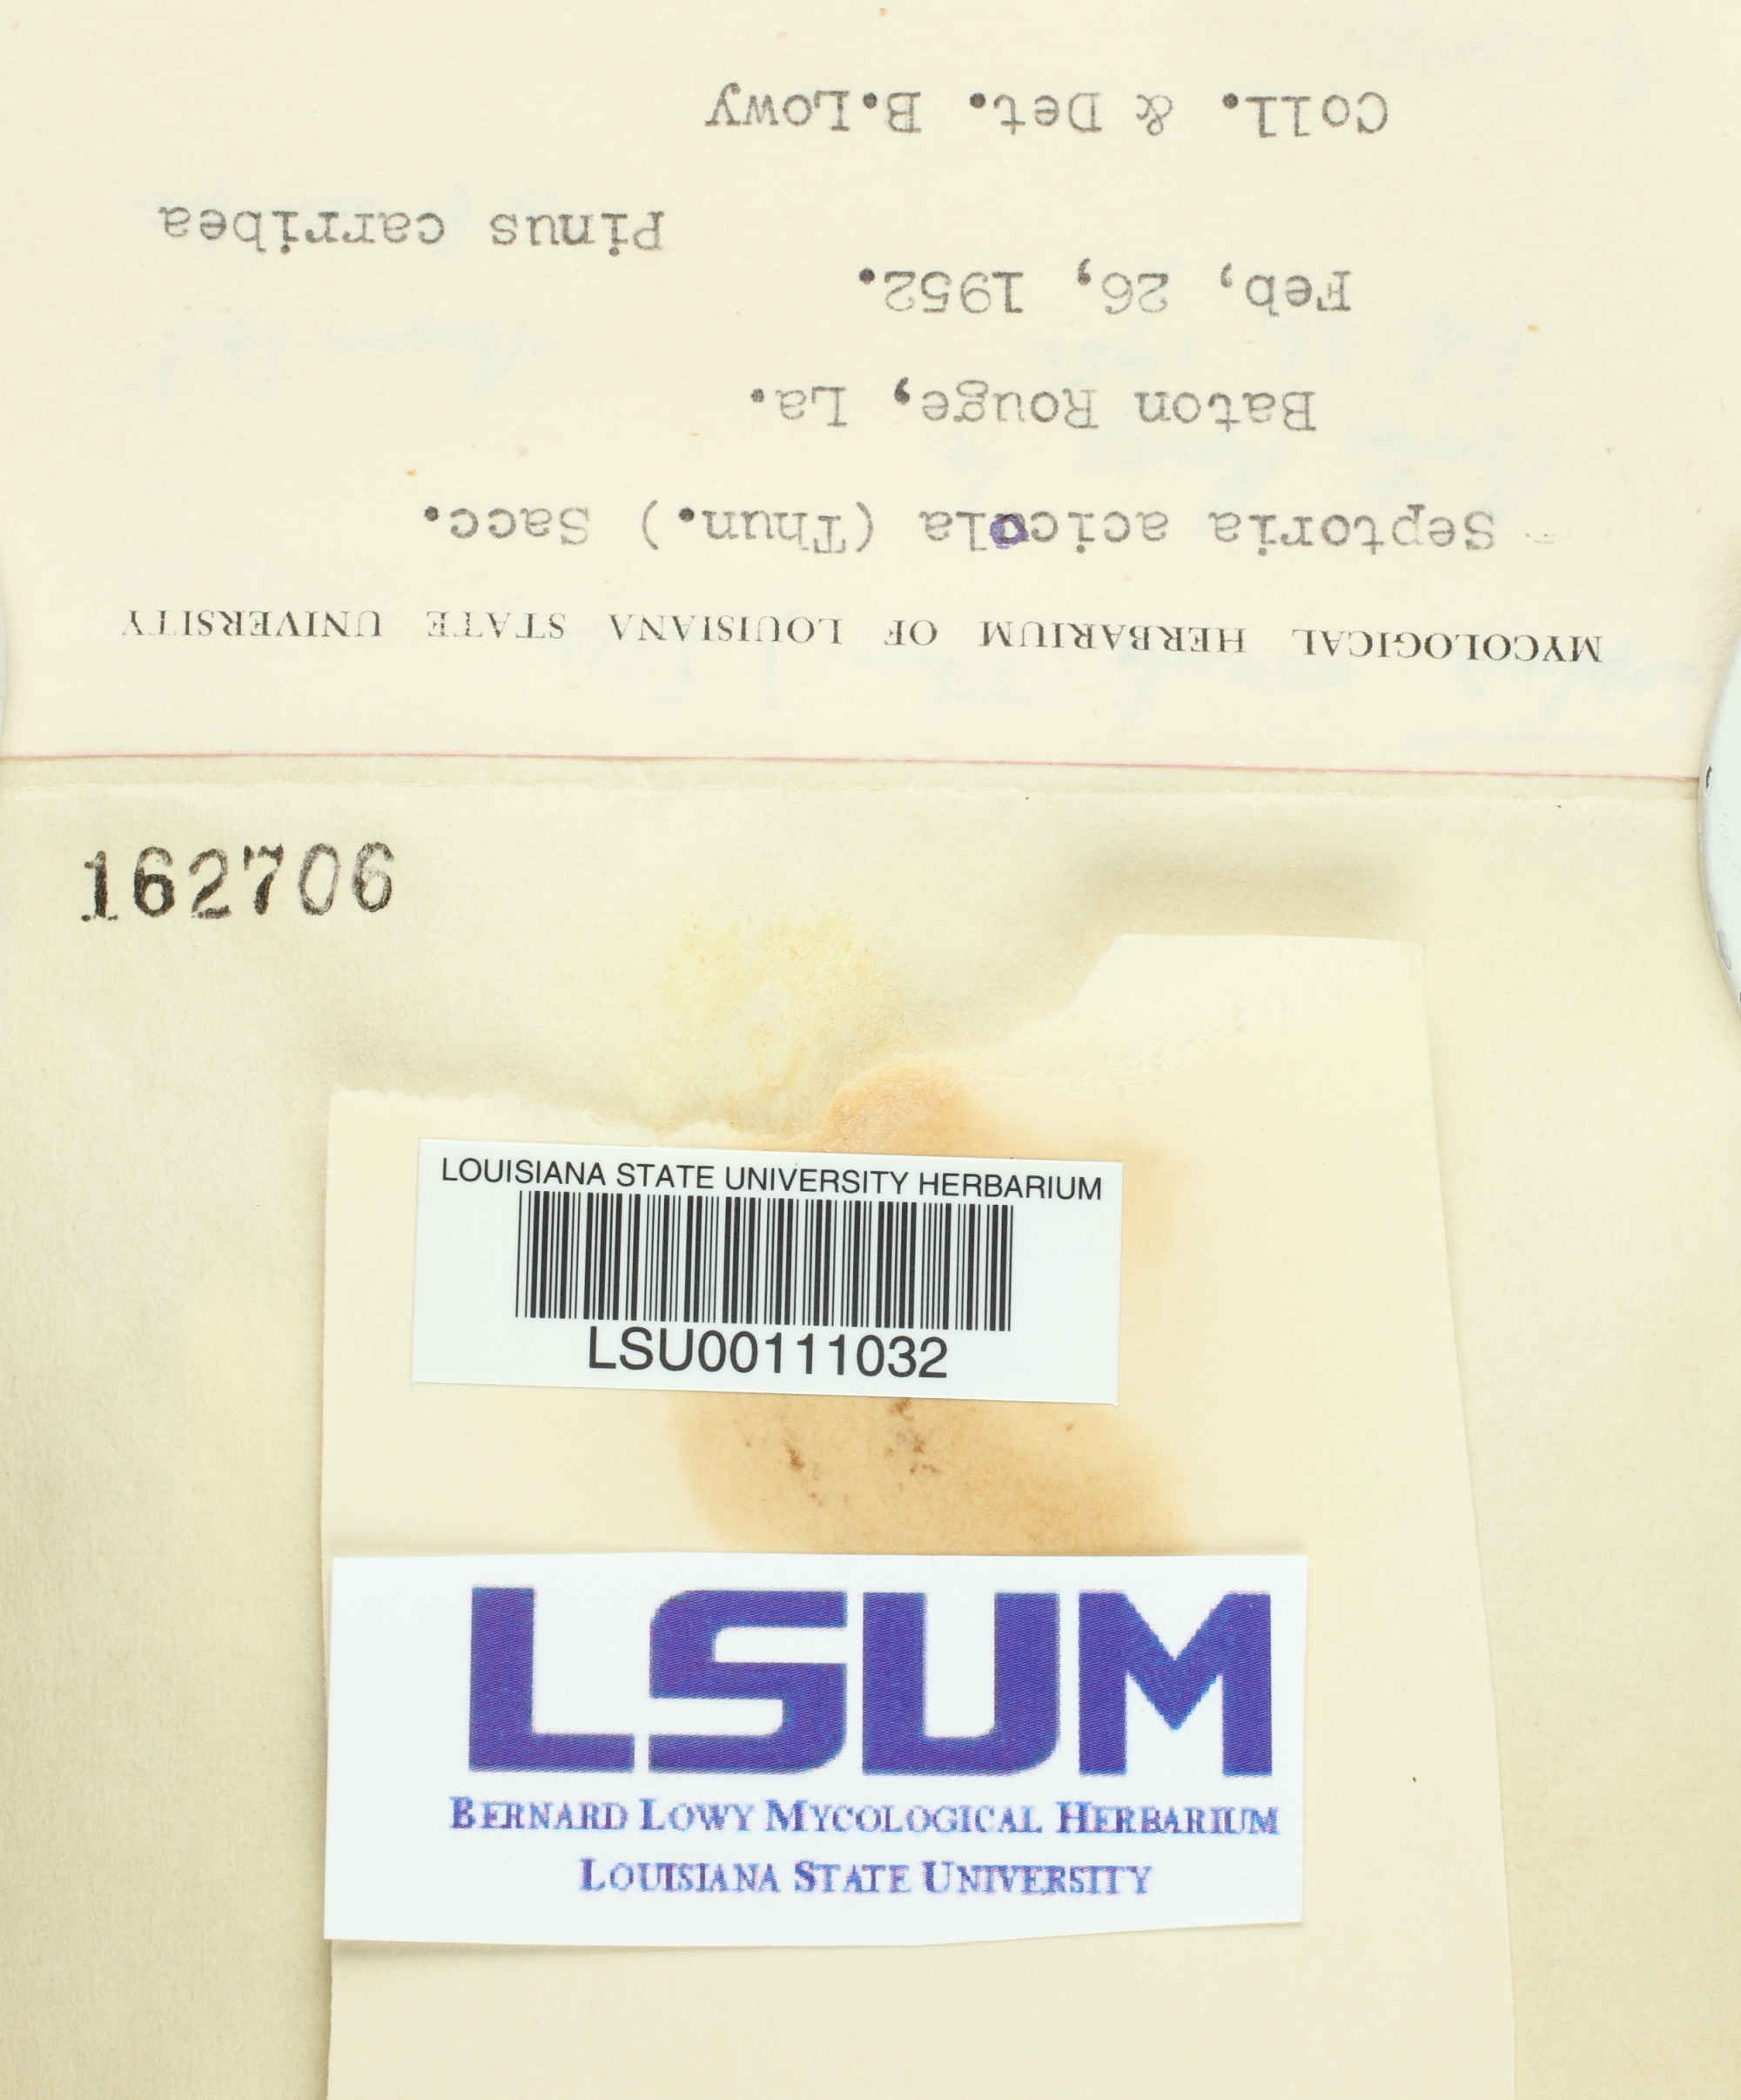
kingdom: Fungi
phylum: Ascomycota
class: Dothideomycetes
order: Mycosphaerellales
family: Mycosphaerellaceae
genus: Lecanosticta
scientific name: Lecanosticta acicola
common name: Brown spot needle blight
